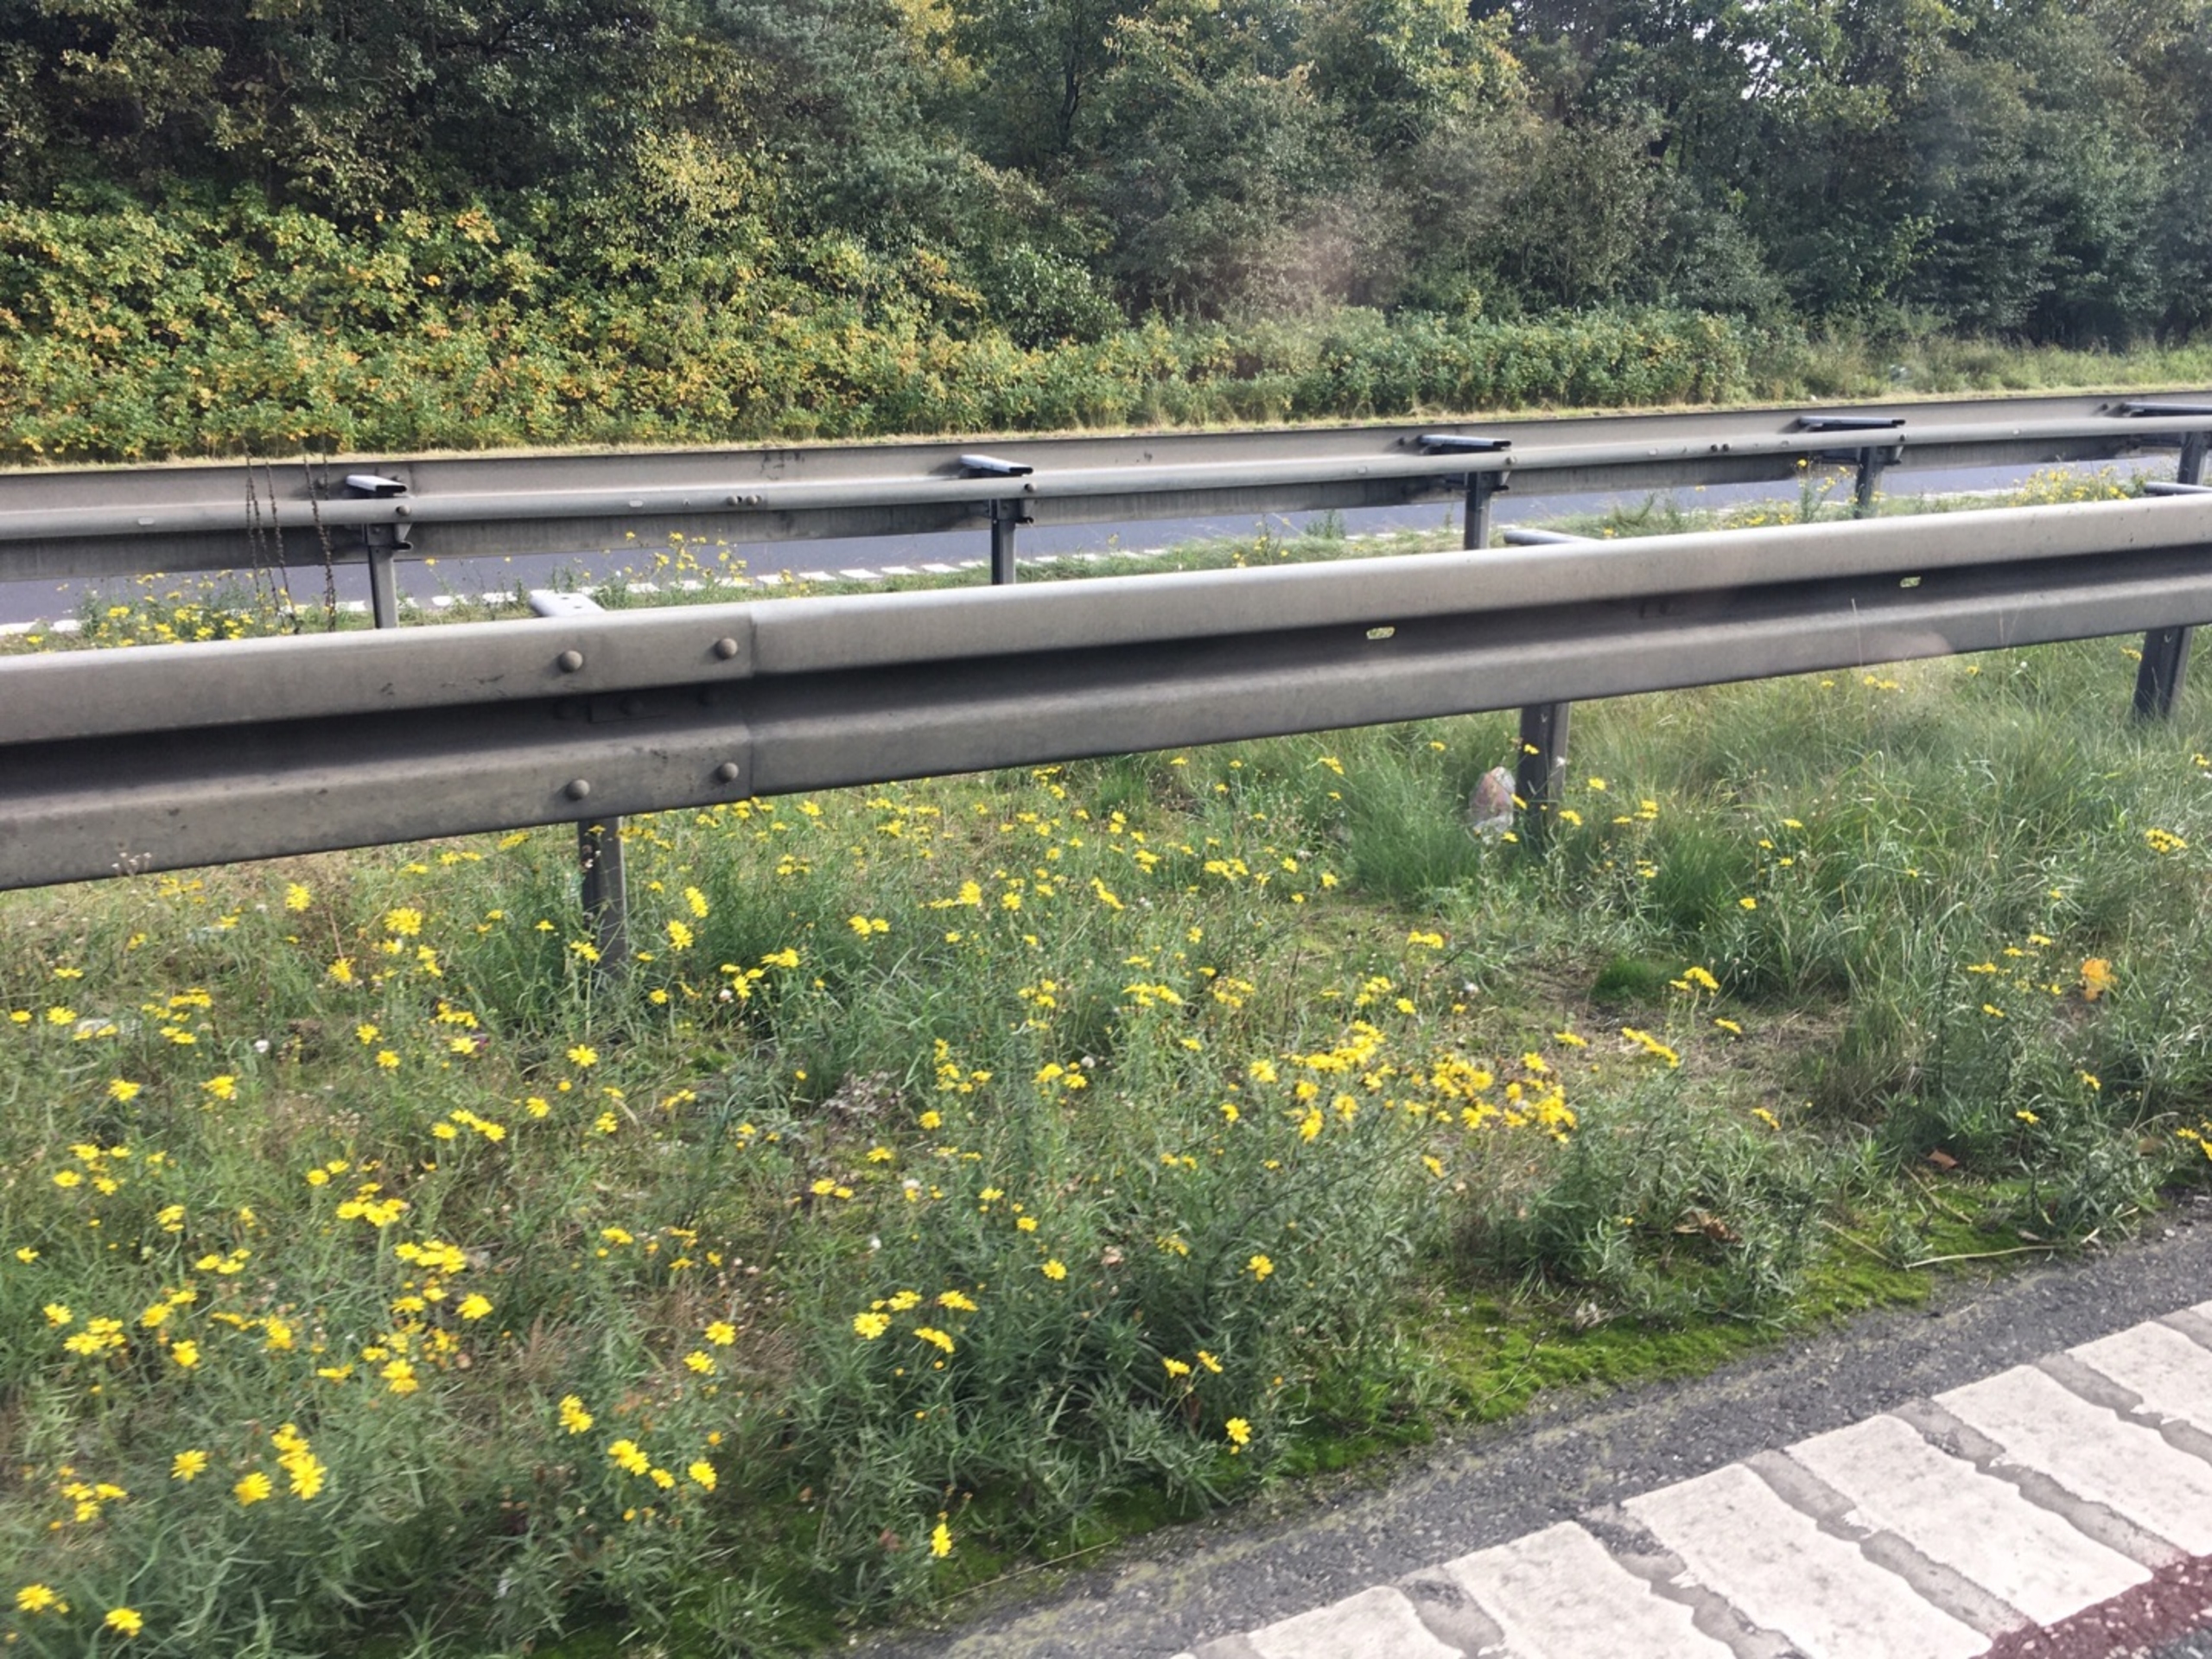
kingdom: Plantae
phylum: Tracheophyta
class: Magnoliopsida
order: Asterales
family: Asteraceae
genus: Senecio
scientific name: Senecio inaequidens
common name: Smalbladet brandbæger
